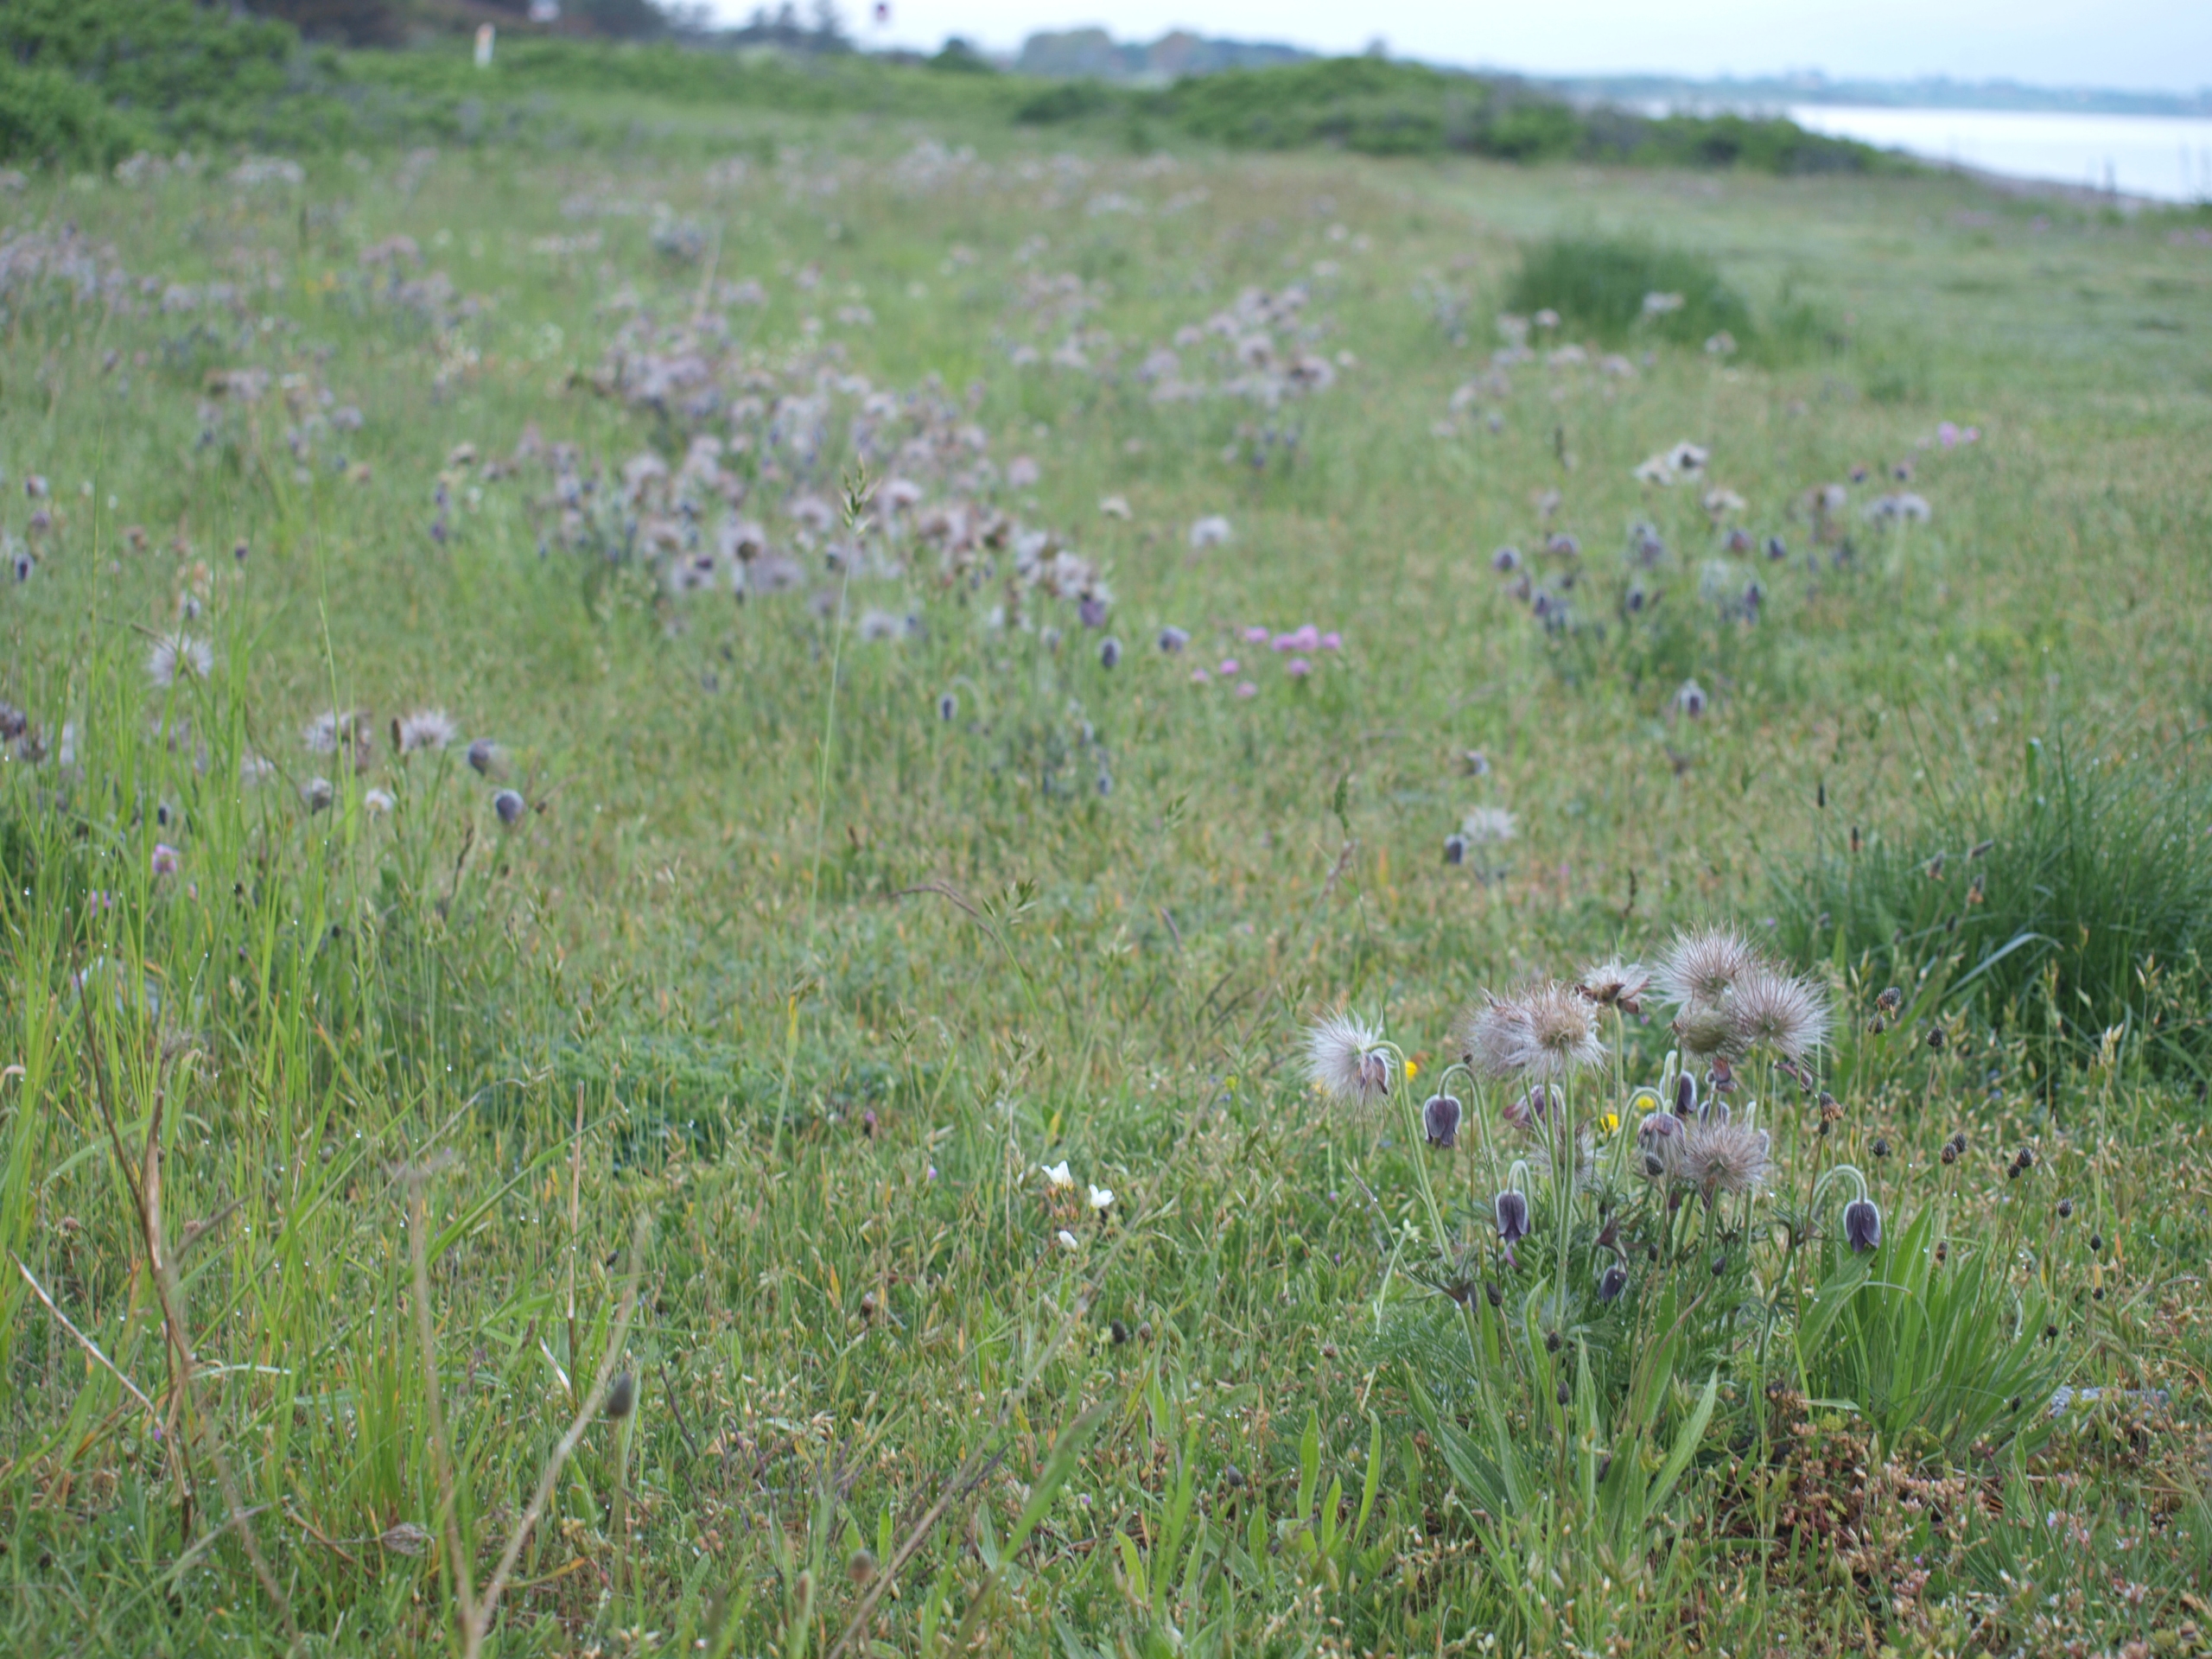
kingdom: Plantae
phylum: Tracheophyta
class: Magnoliopsida
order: Ranunculales
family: Ranunculaceae
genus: Pulsatilla
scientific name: Pulsatilla pratensis
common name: Nikkende kobjælde
